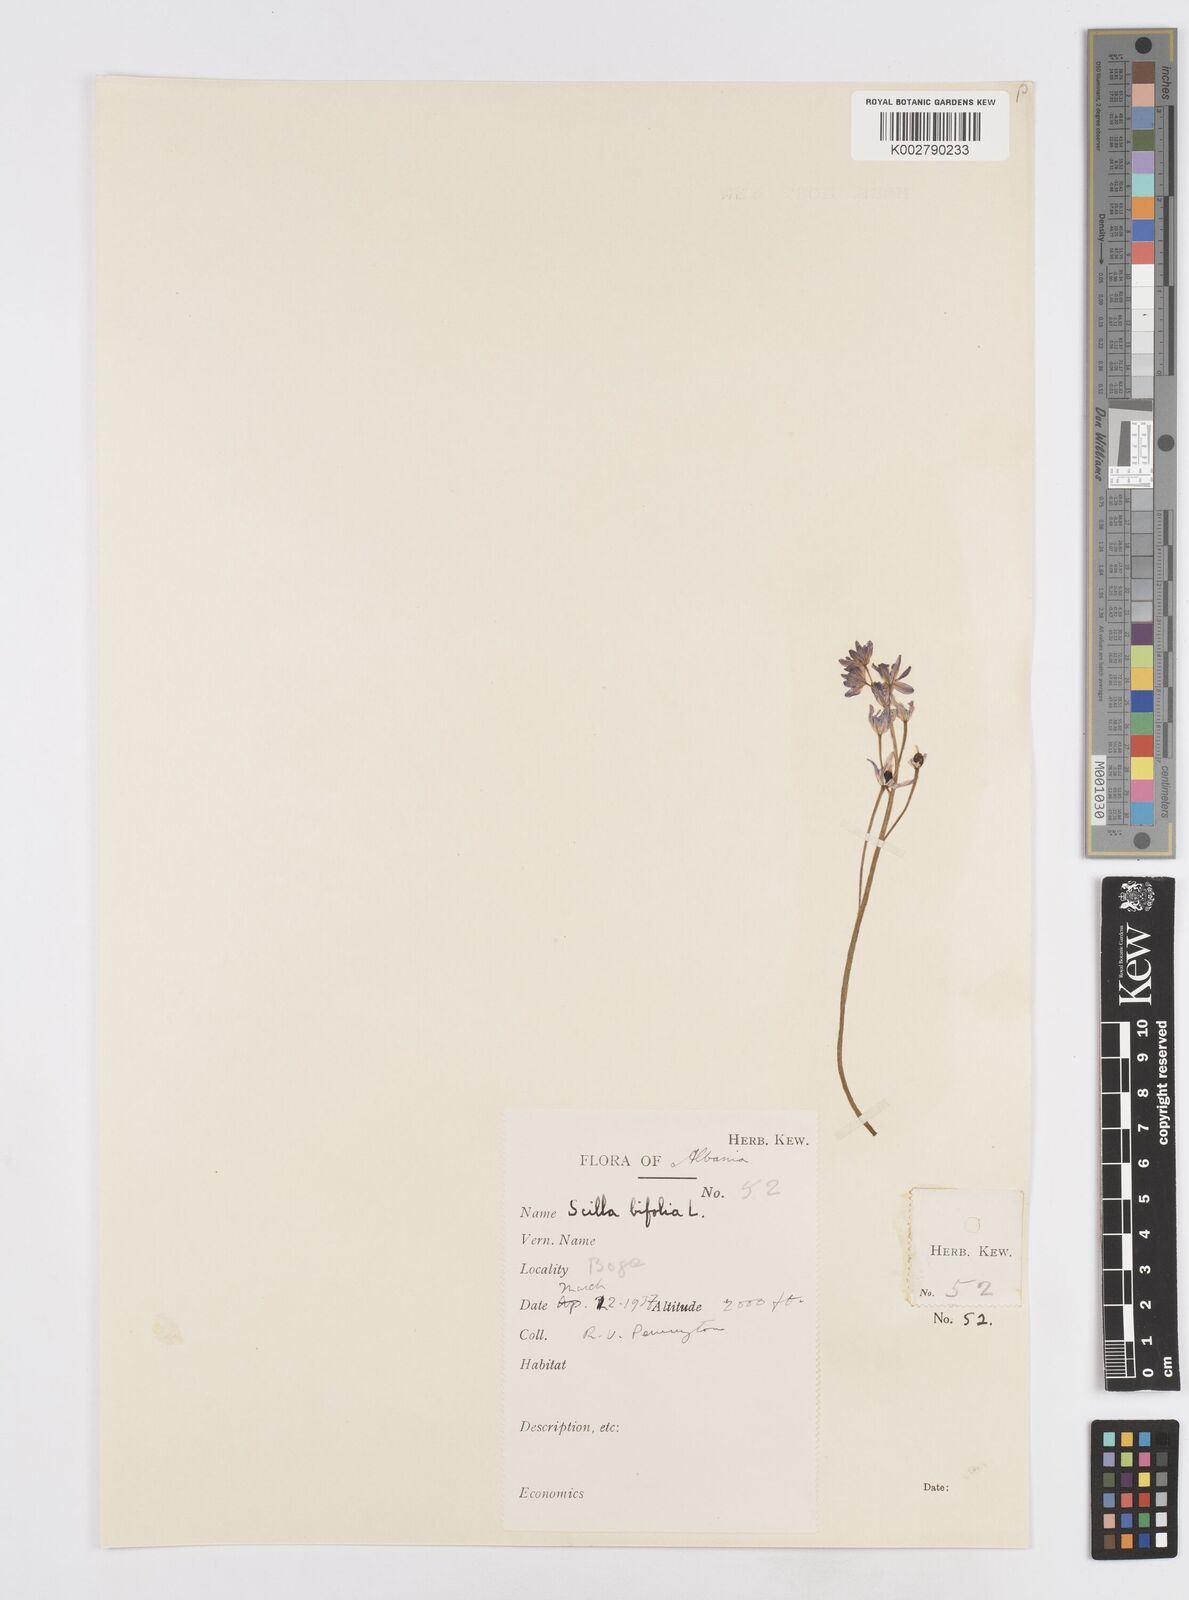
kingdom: Plantae
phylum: Tracheophyta
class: Liliopsida
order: Asparagales
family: Asparagaceae
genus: Scilla
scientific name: Scilla bifolia
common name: Alpine squill
